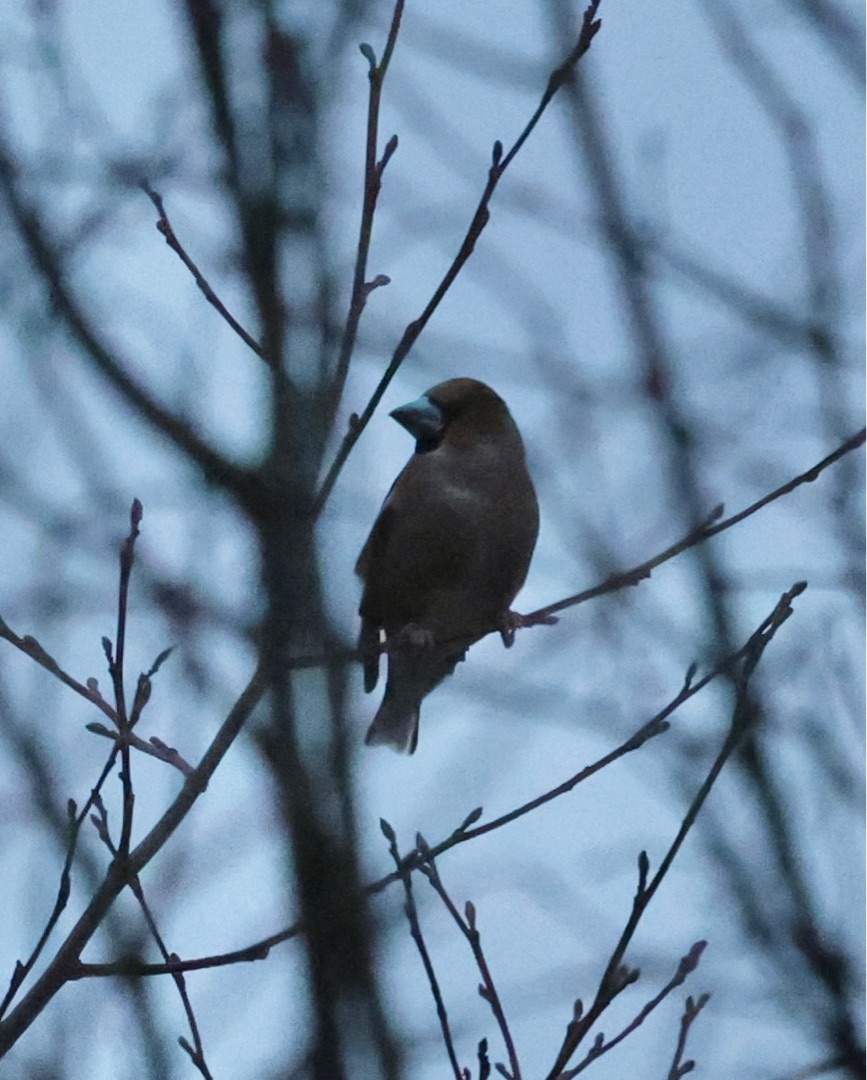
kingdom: Animalia
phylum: Chordata
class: Aves
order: Passeriformes
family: Fringillidae
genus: Coccothraustes
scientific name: Coccothraustes coccothraustes
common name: Kernebider
